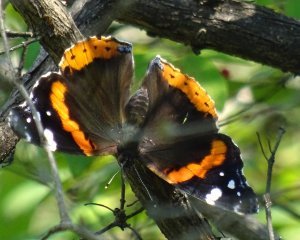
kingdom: Animalia
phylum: Arthropoda
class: Insecta
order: Lepidoptera
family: Nymphalidae
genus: Vanessa
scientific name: Vanessa atalanta
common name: Red Admiral
